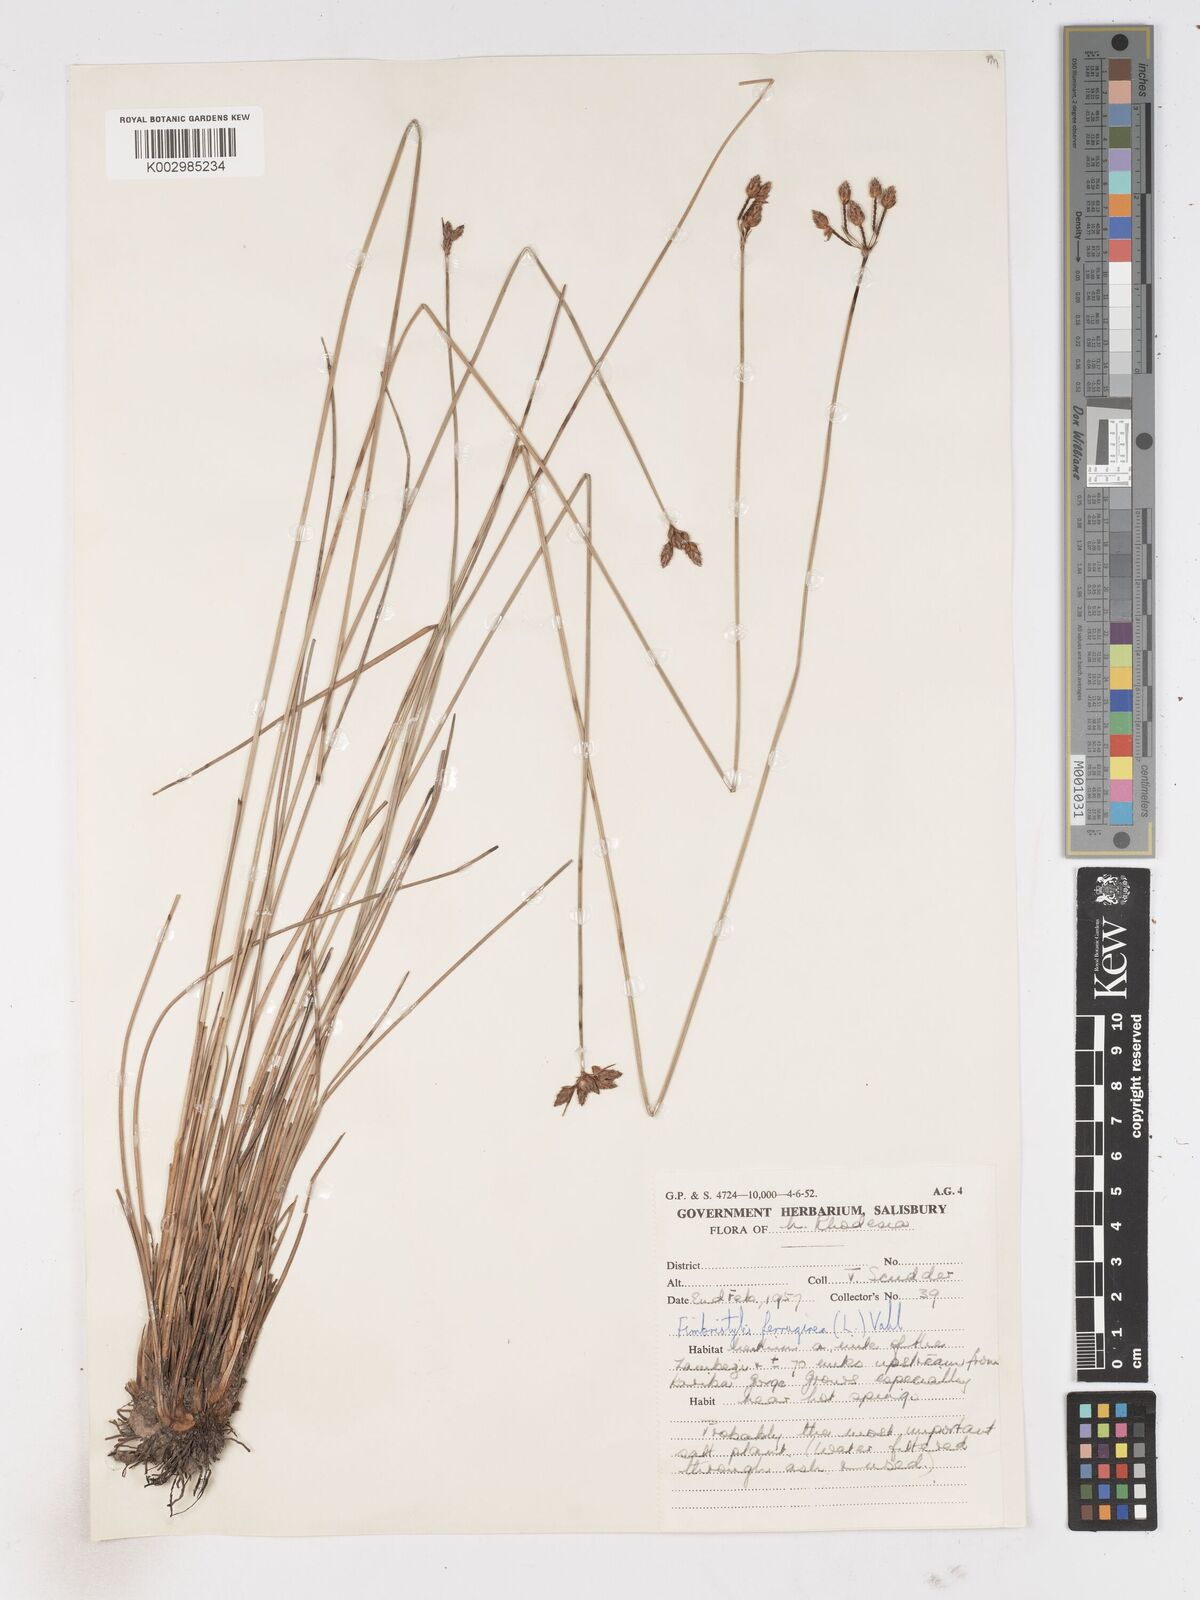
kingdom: Plantae
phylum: Tracheophyta
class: Liliopsida
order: Poales
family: Cyperaceae
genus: Fimbristylis
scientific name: Fimbristylis ferruginea
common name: West indian fimbry
